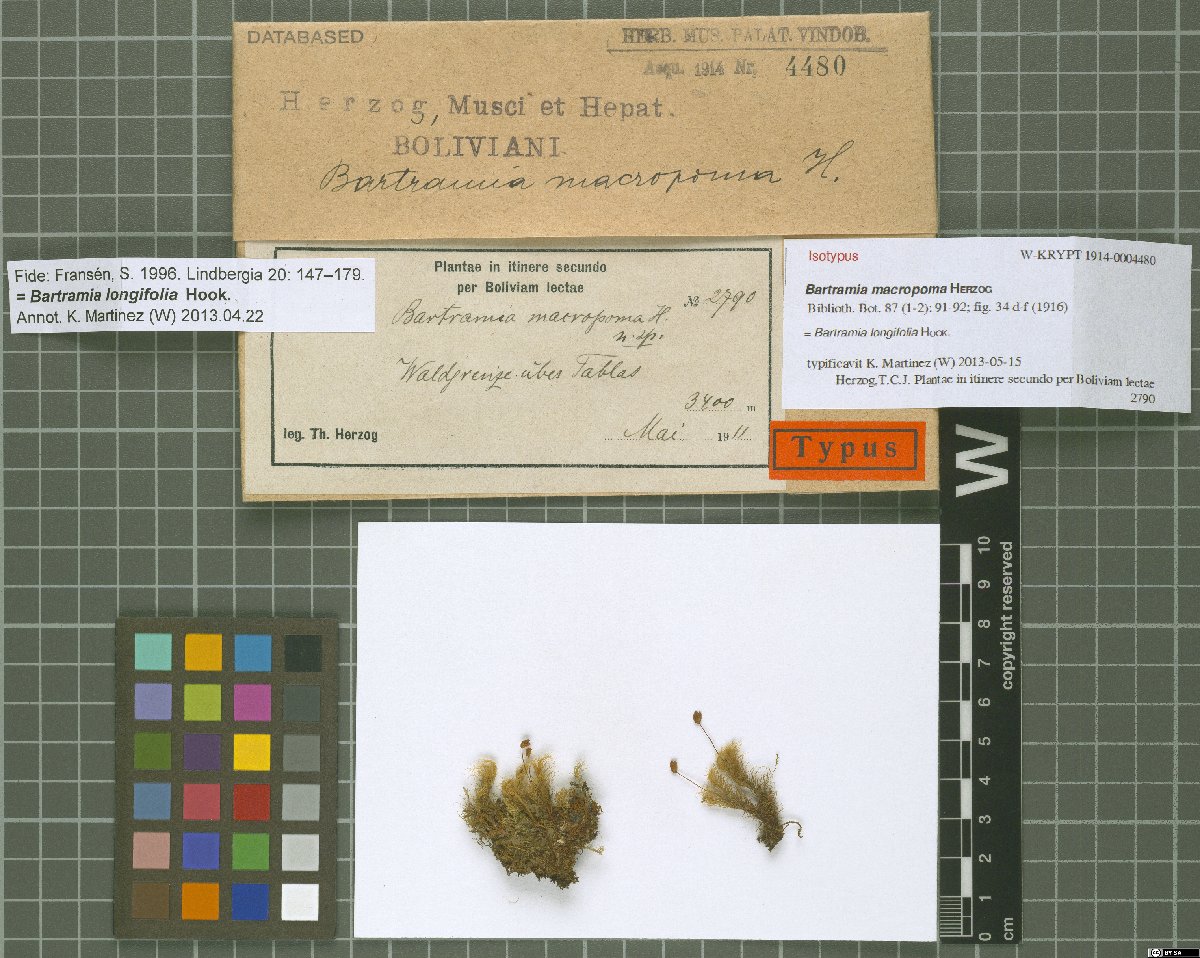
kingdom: Plantae
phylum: Bryophyta
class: Bryopsida
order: Bartramiales
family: Bartramiaceae
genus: Bartramia
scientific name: Bartramia longifolia
